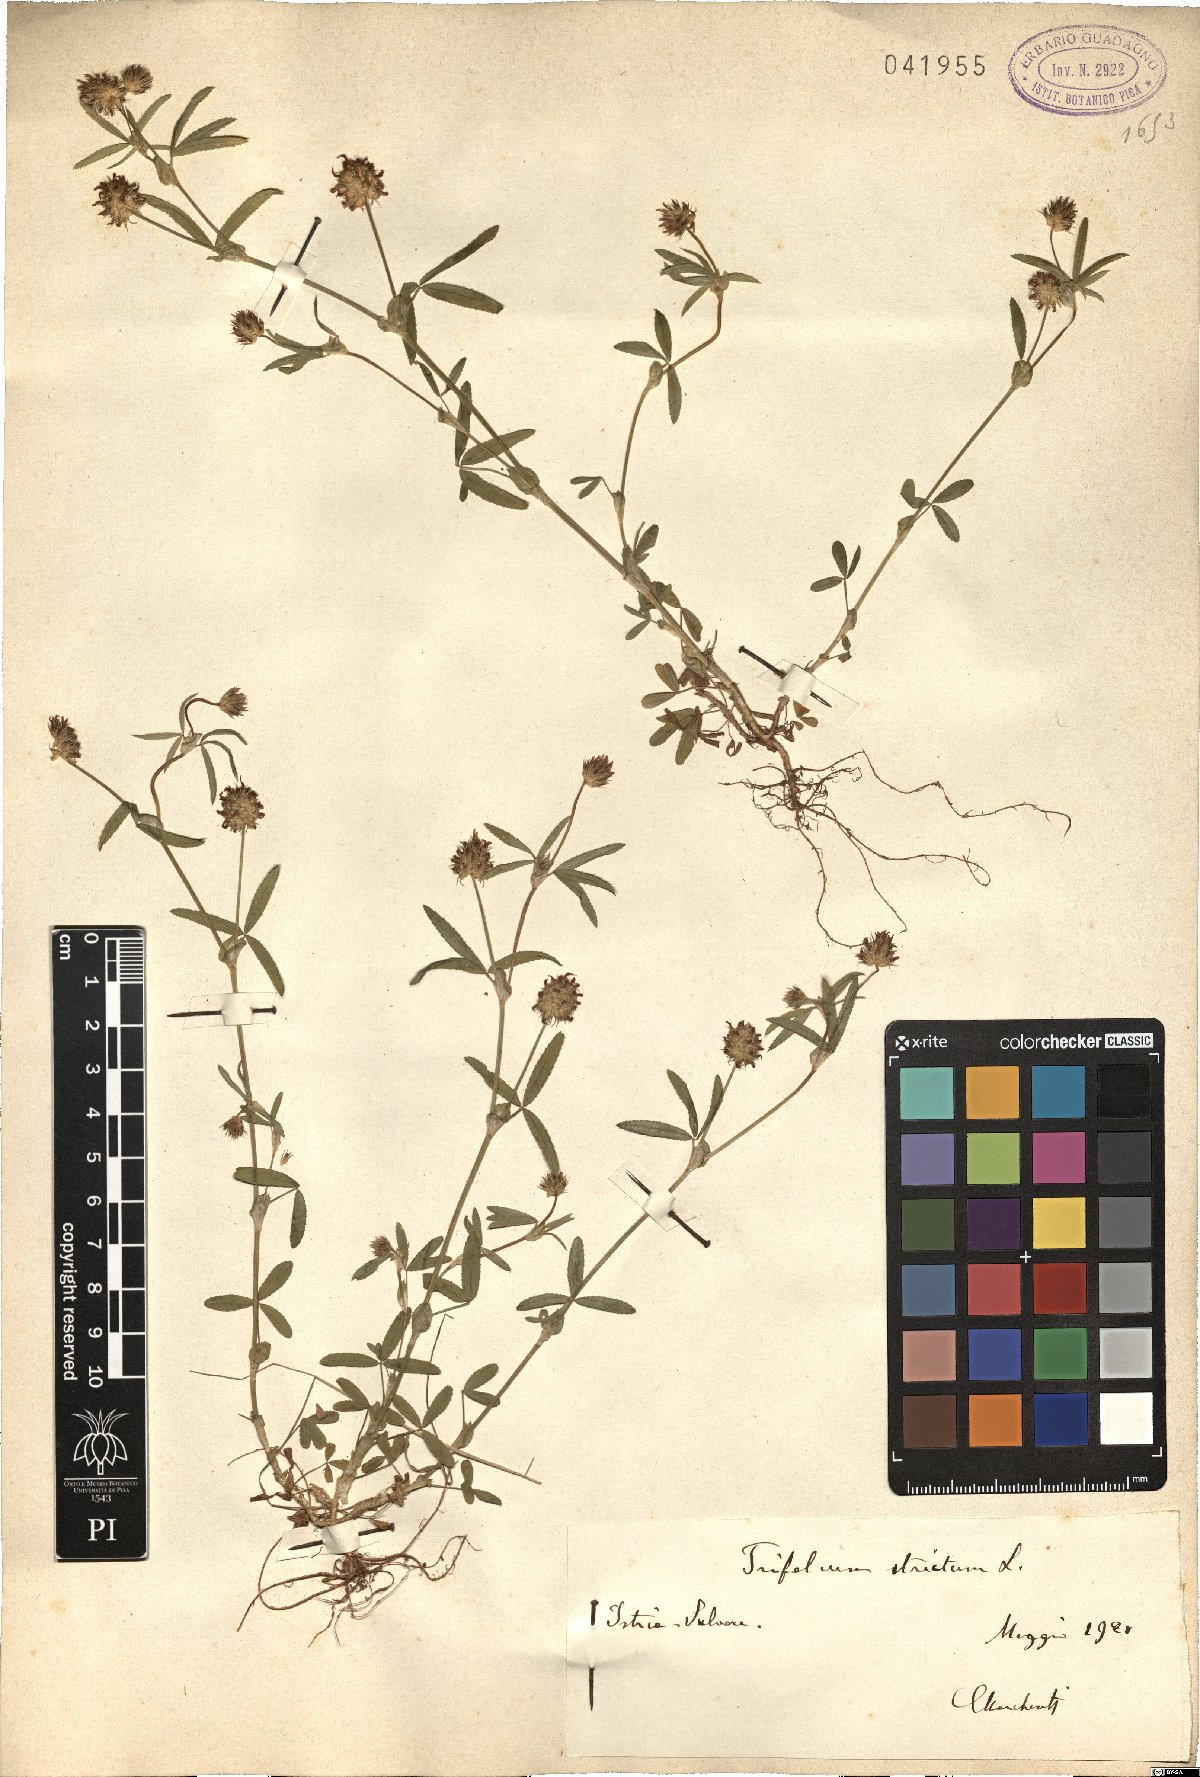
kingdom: Plantae
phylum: Tracheophyta
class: Magnoliopsida
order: Fabales
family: Fabaceae
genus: Trifolium
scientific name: Trifolium strictum
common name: Upright clover
